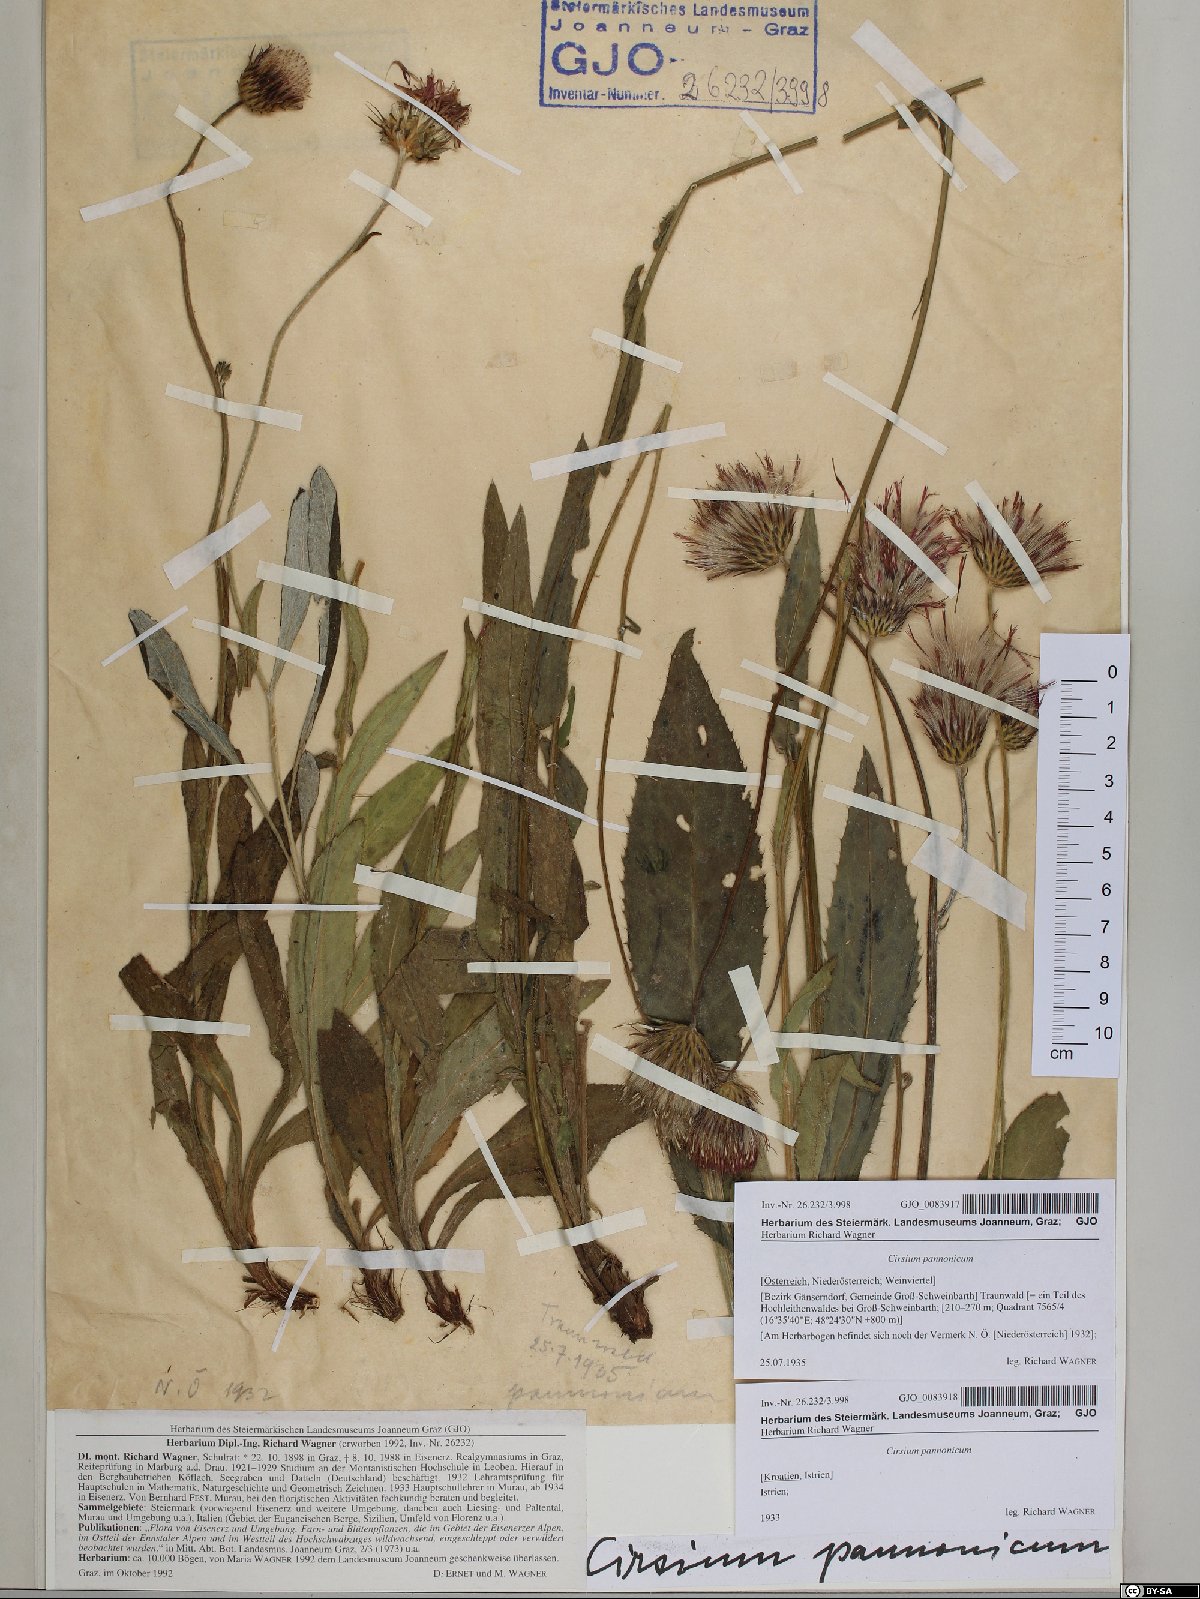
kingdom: Plantae
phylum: Tracheophyta
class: Magnoliopsida
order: Asterales
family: Asteraceae
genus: Cirsium
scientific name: Cirsium pannonicum
